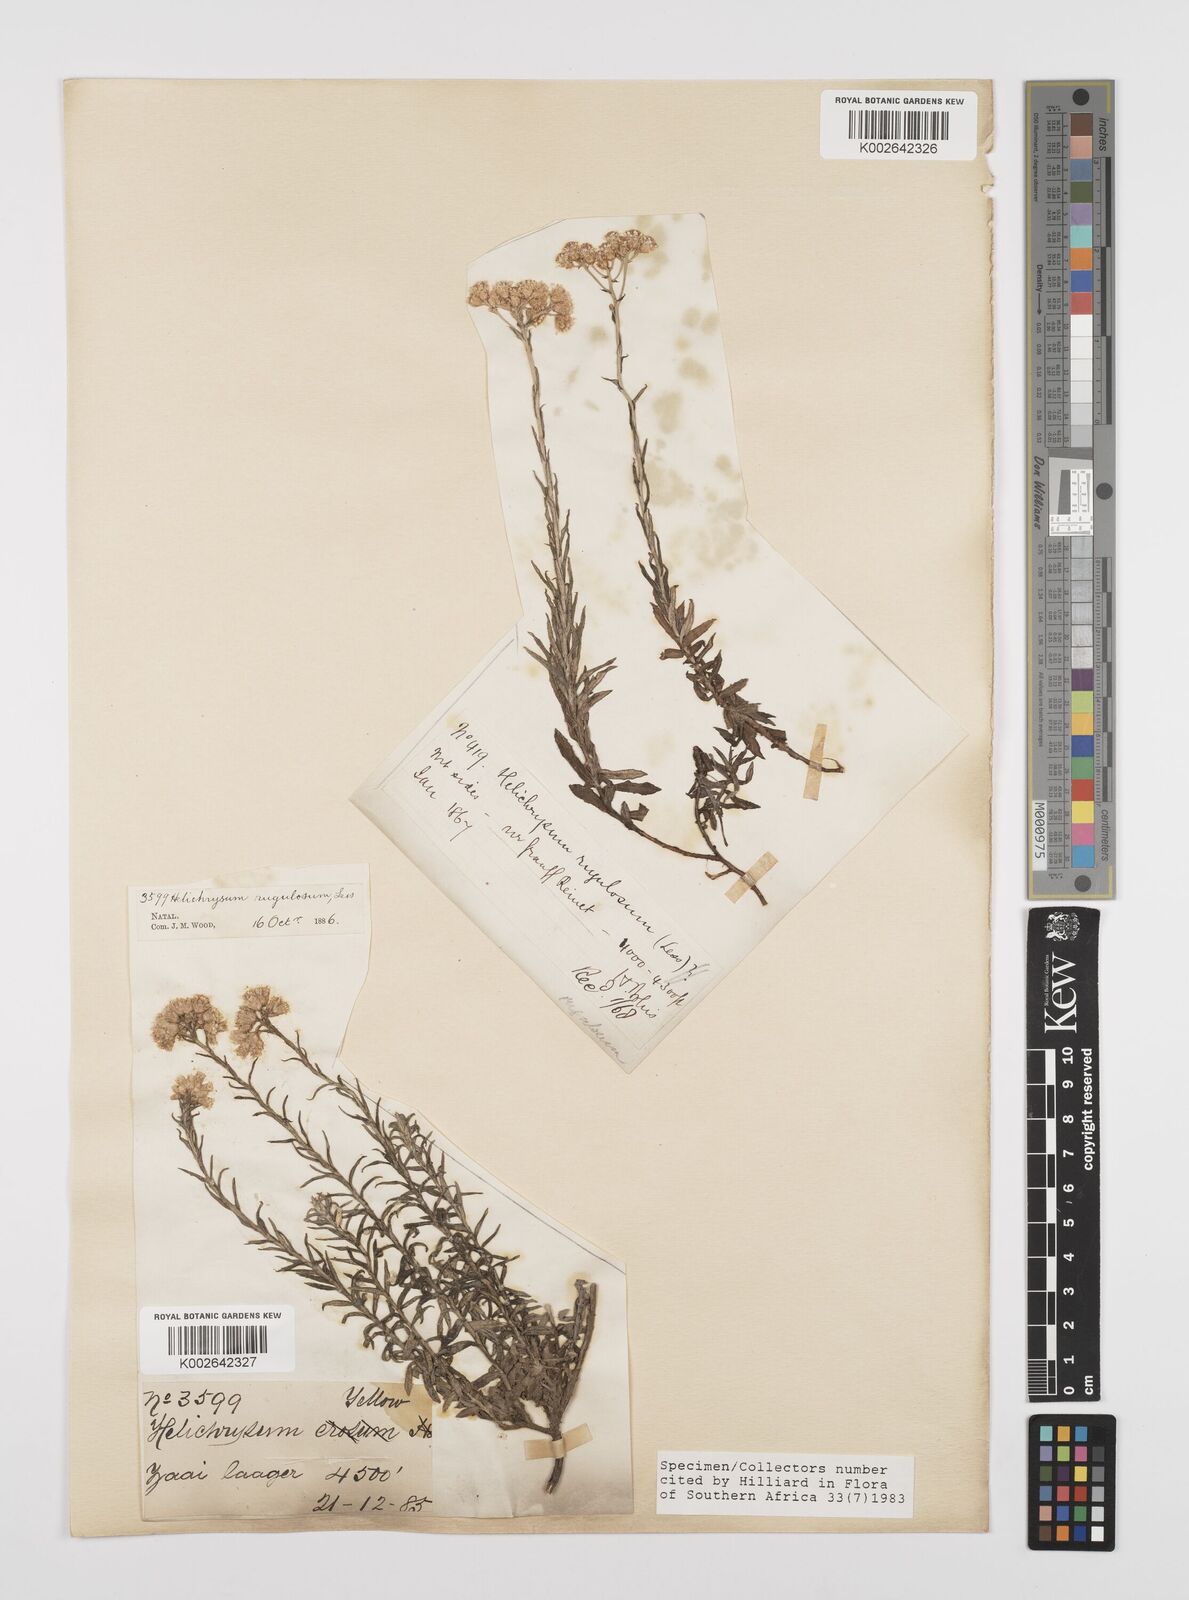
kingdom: Plantae
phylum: Tracheophyta
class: Magnoliopsida
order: Asterales
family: Asteraceae
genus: Helichrysum
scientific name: Helichrysum rugulosum
